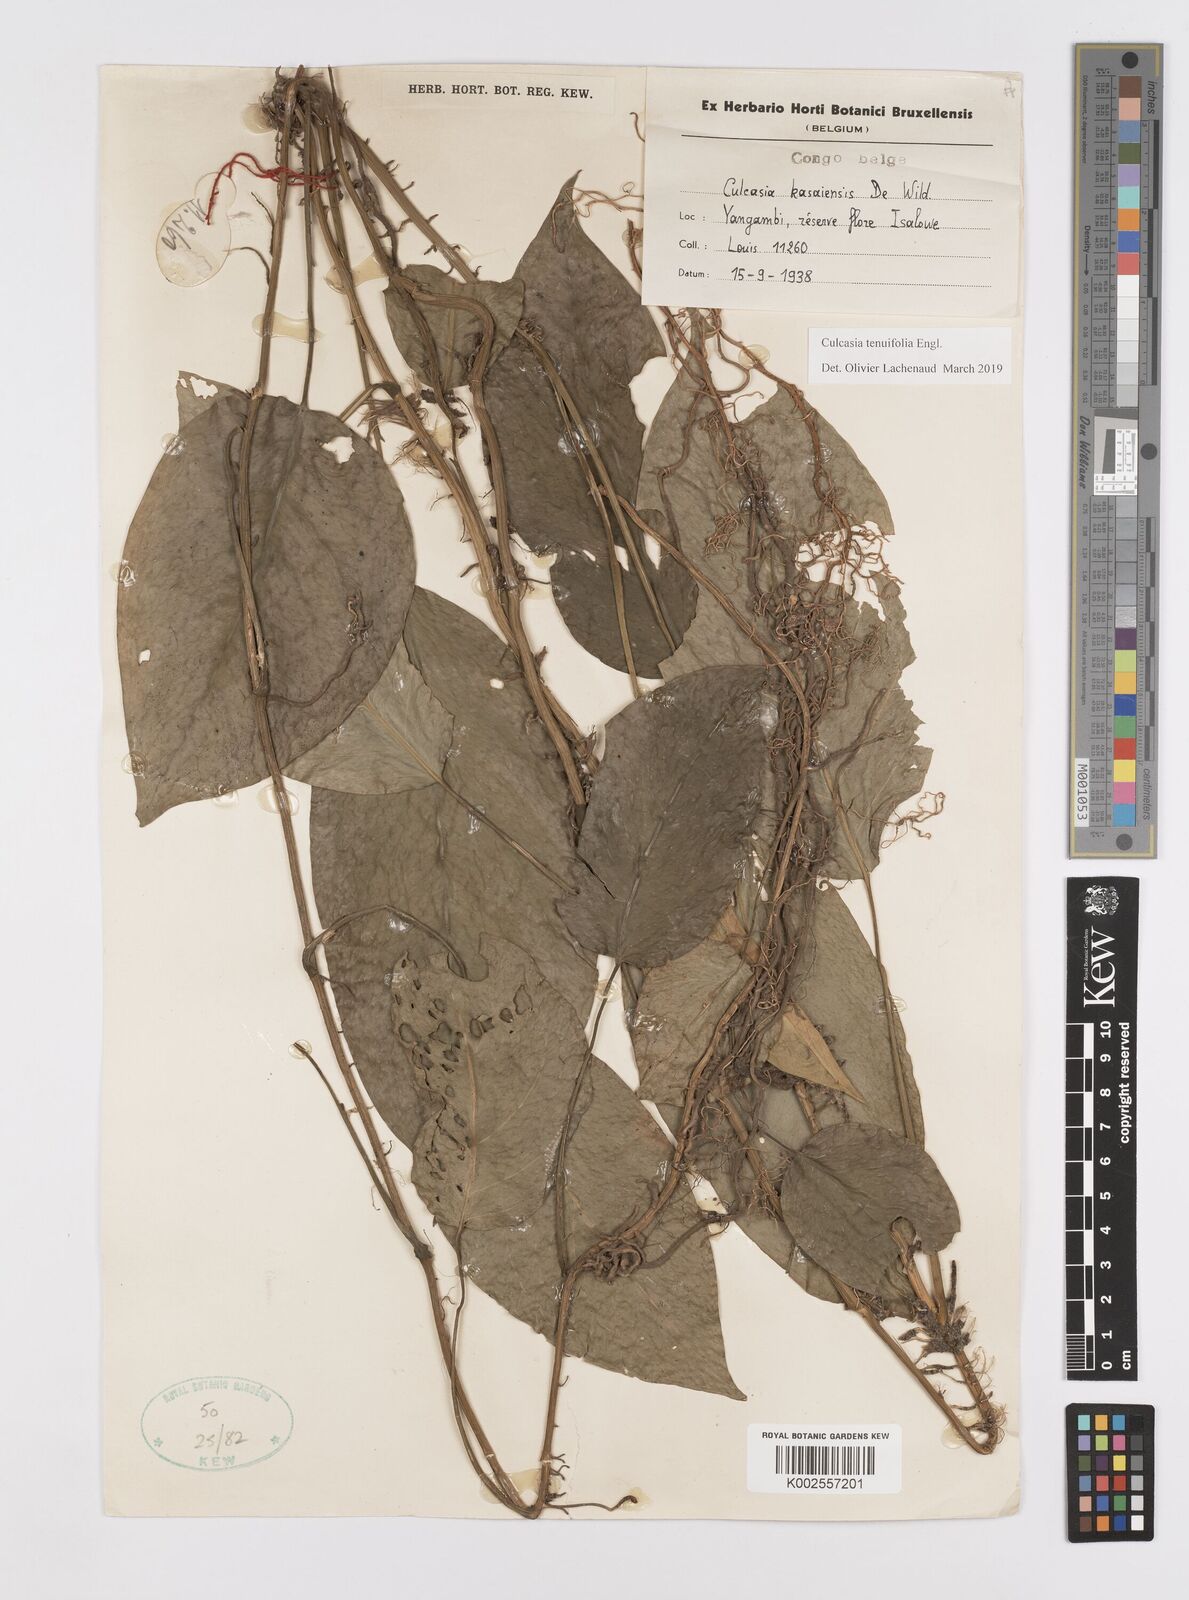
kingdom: Plantae
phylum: Tracheophyta
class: Liliopsida
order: Alismatales
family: Araceae
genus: Culcasia
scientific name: Culcasia tenuifolia
